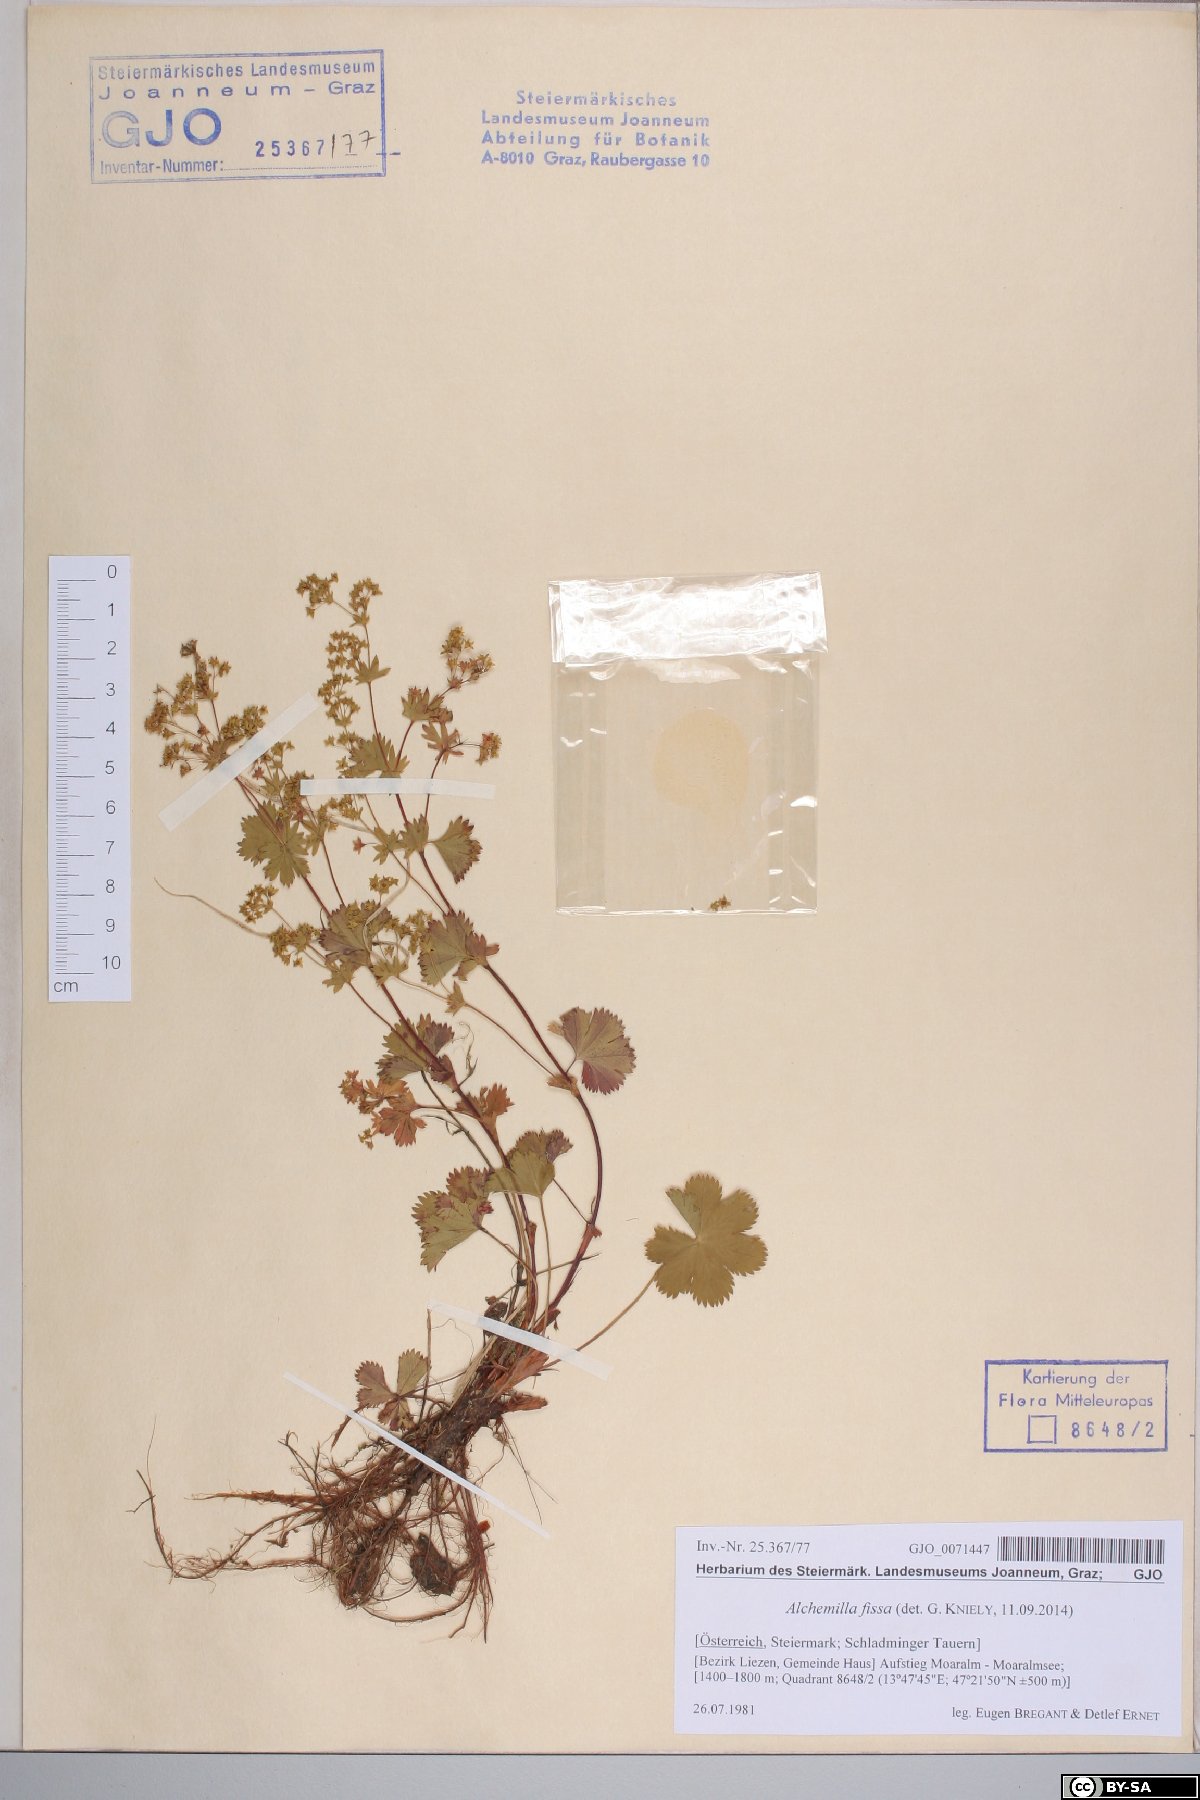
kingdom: Plantae
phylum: Tracheophyta
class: Magnoliopsida
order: Rosales
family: Rosaceae
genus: Alchemilla
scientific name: Alchemilla fissa
